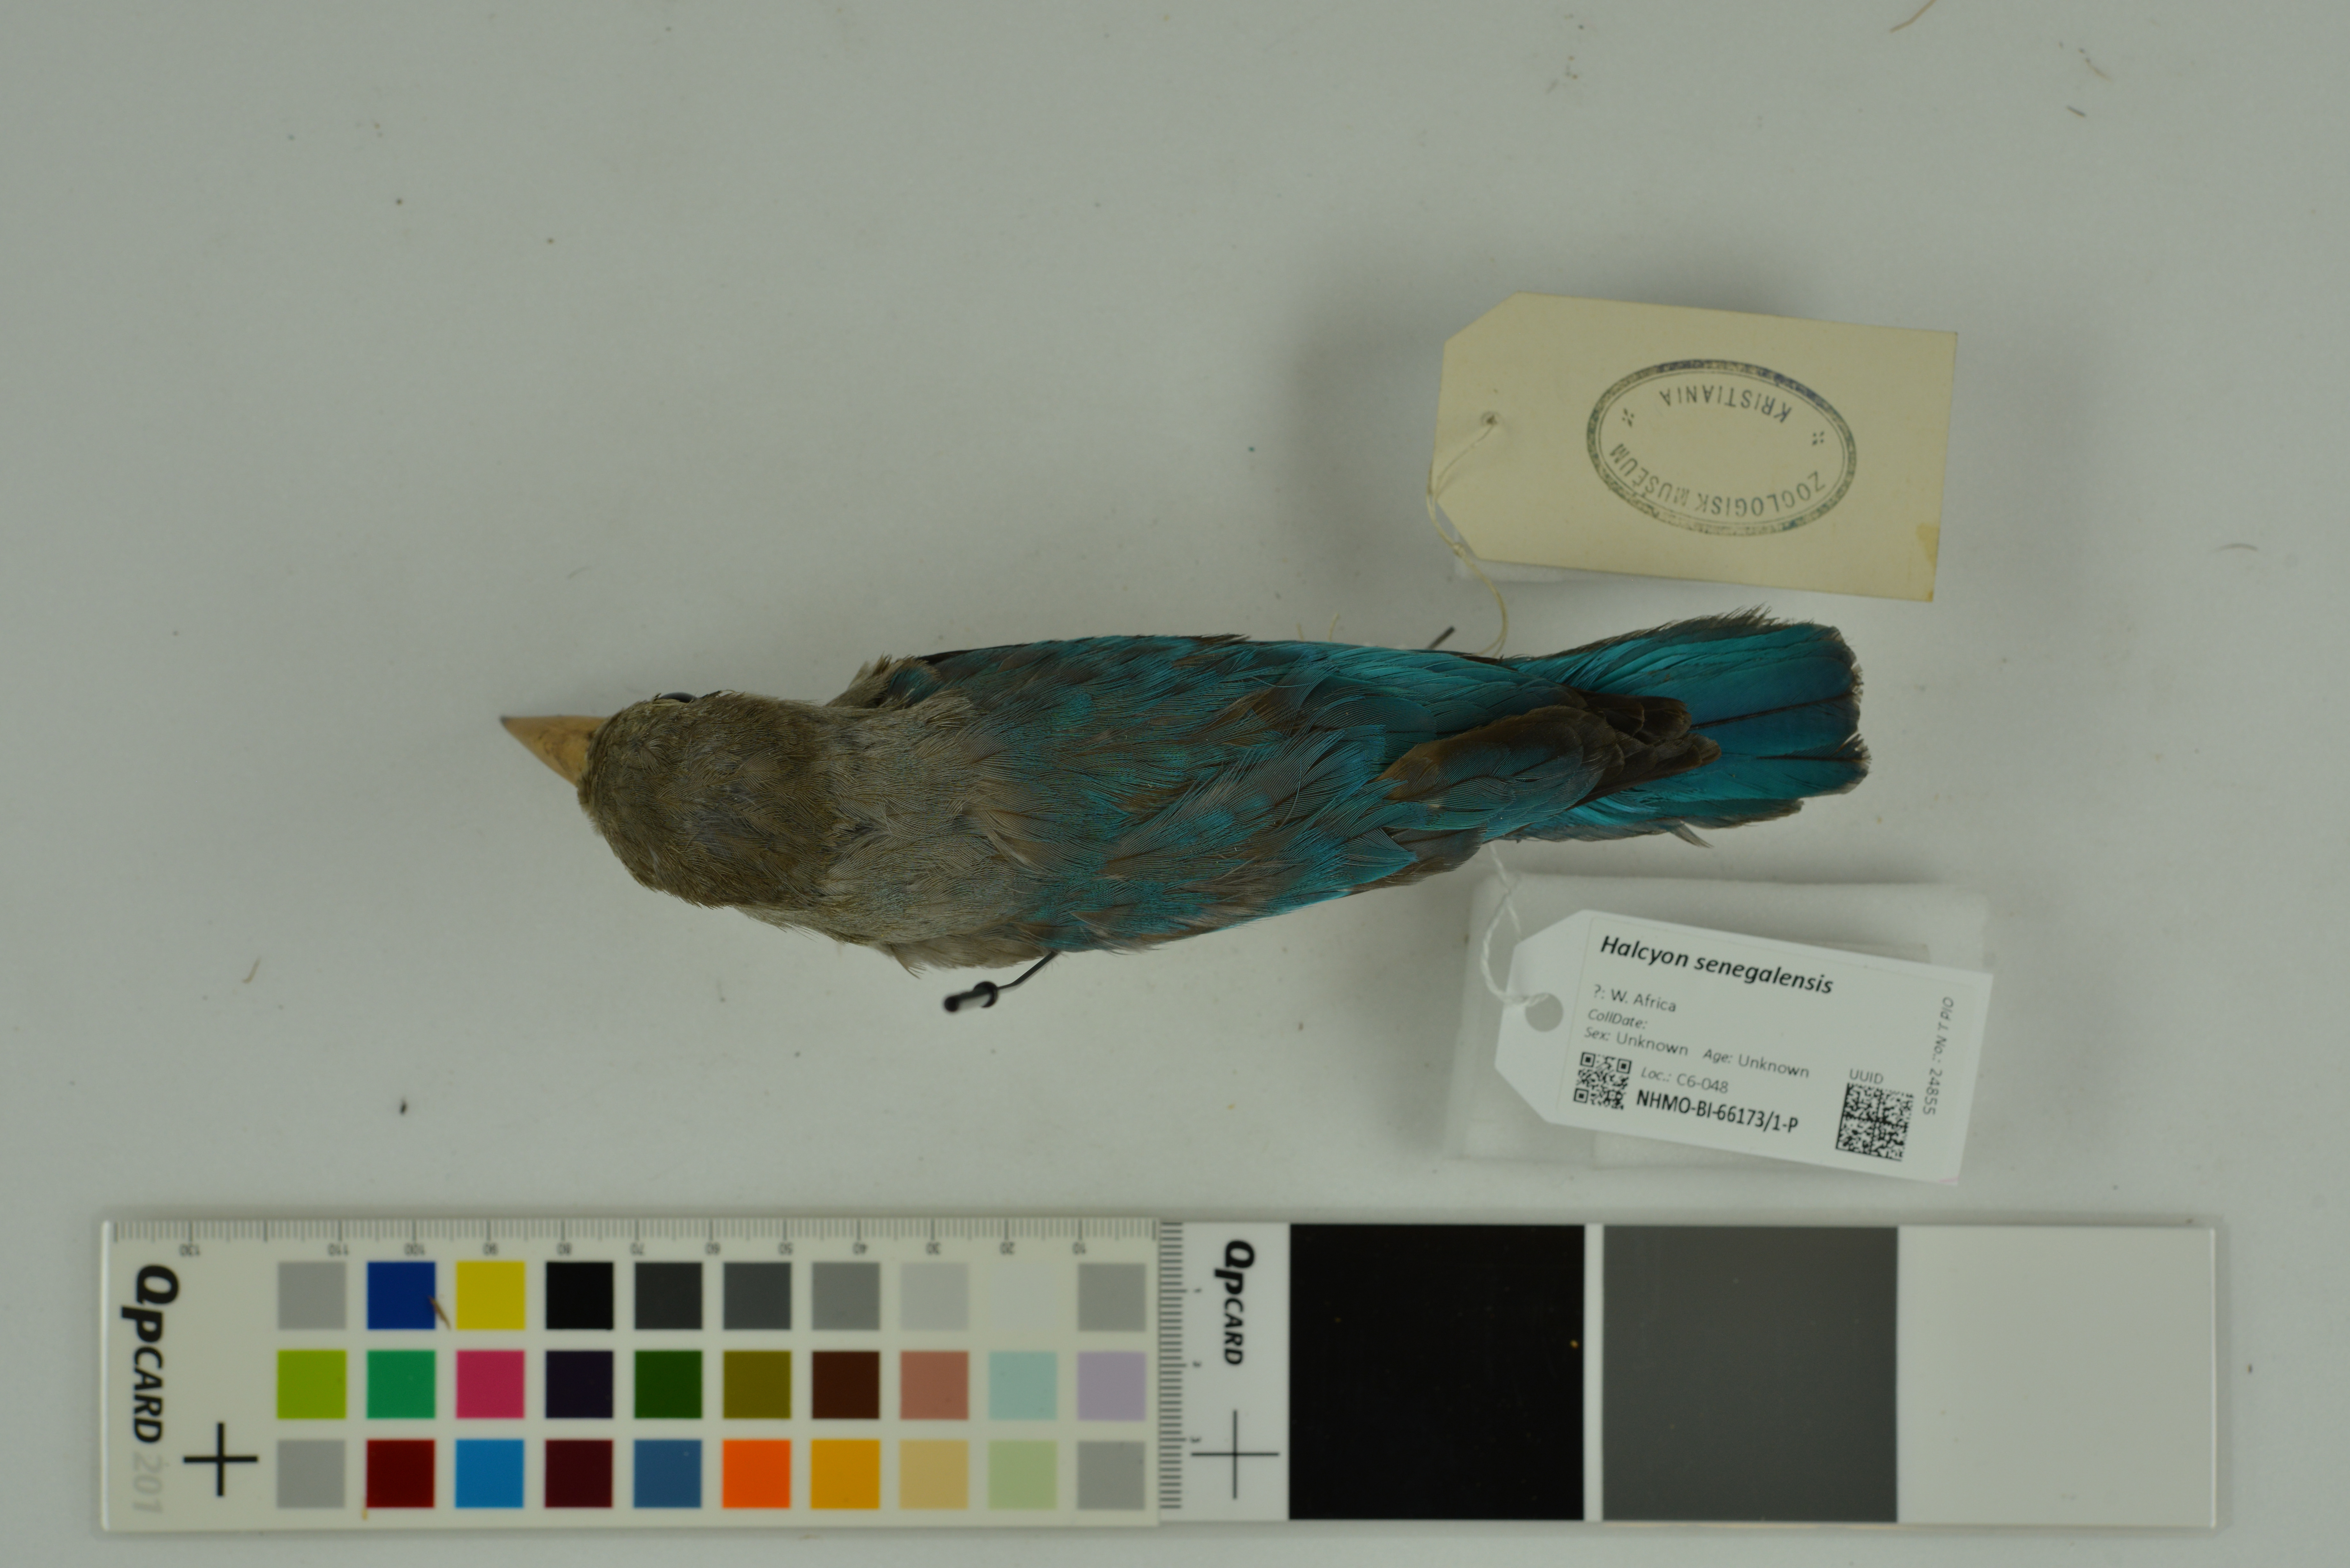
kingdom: Animalia
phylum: Chordata
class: Aves
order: Coraciiformes
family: Alcedinidae
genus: Halcyon
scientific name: Halcyon senegalensis
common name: Woodland kingfisher
